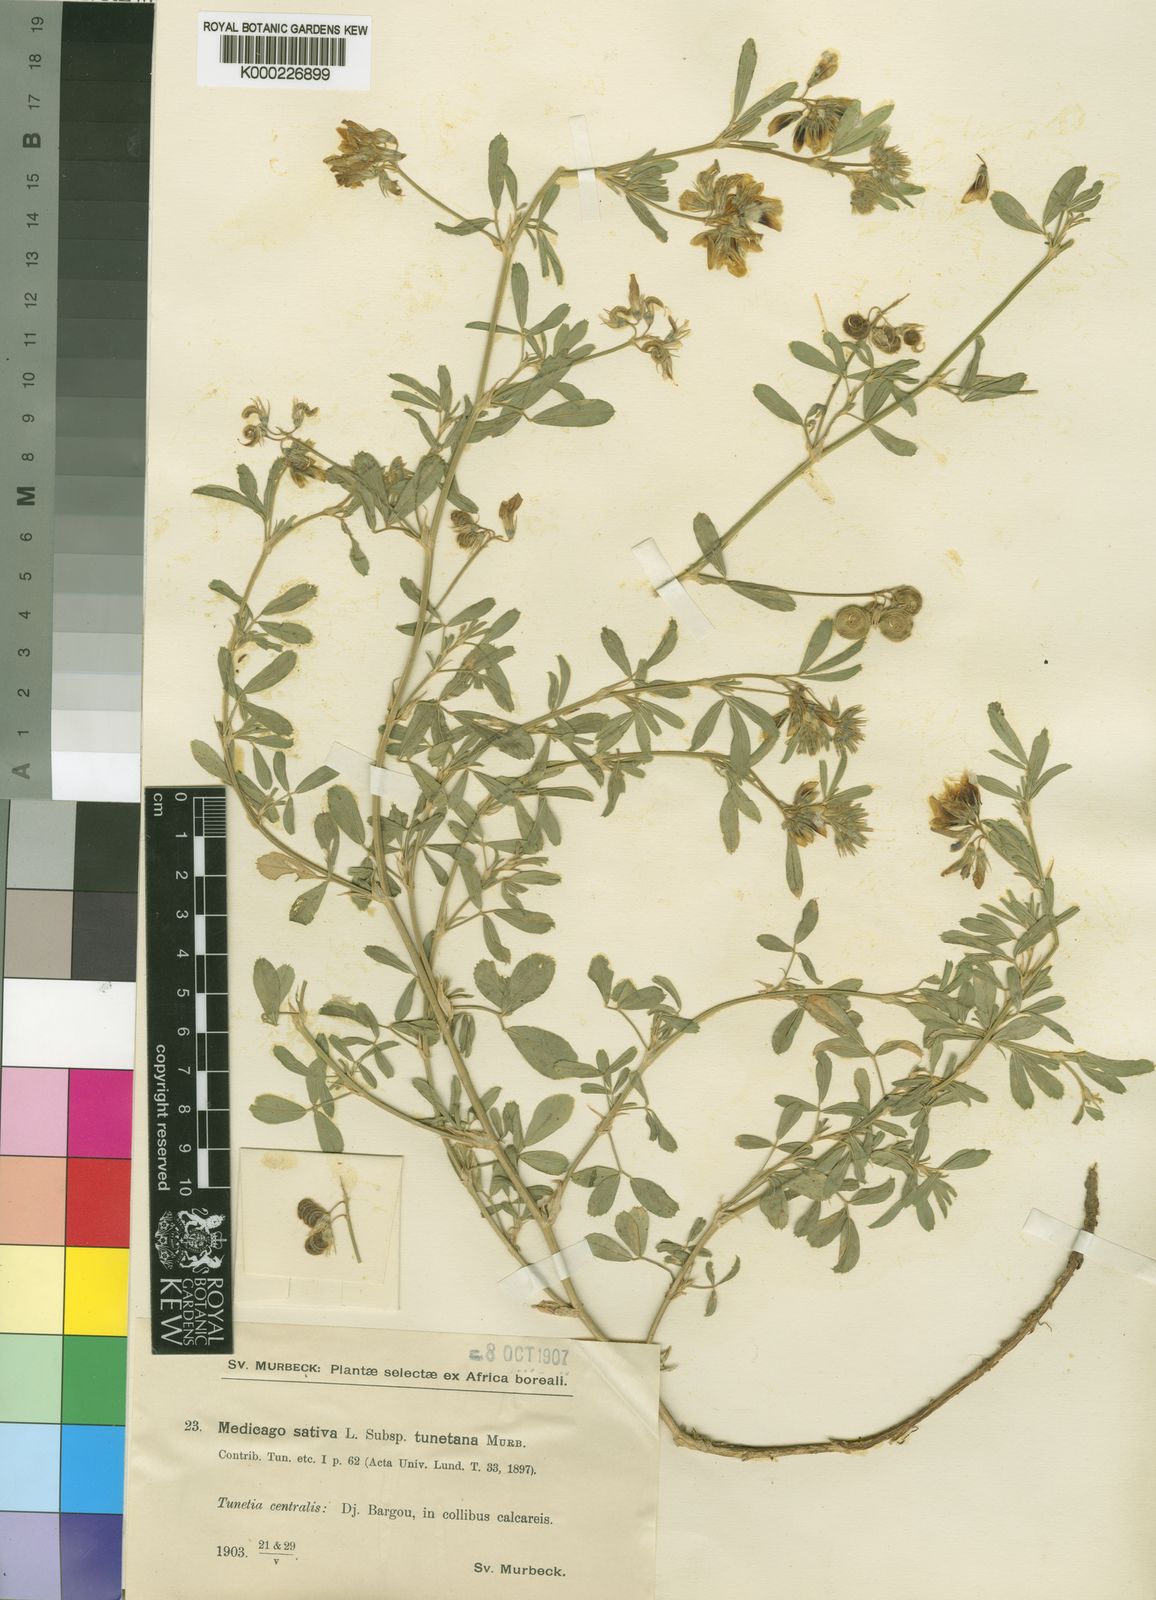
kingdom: Plantae
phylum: Tracheophyta
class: Magnoliopsida
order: Fabales
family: Fabaceae
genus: Medicago
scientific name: Medicago sativa
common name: Alfalfa
